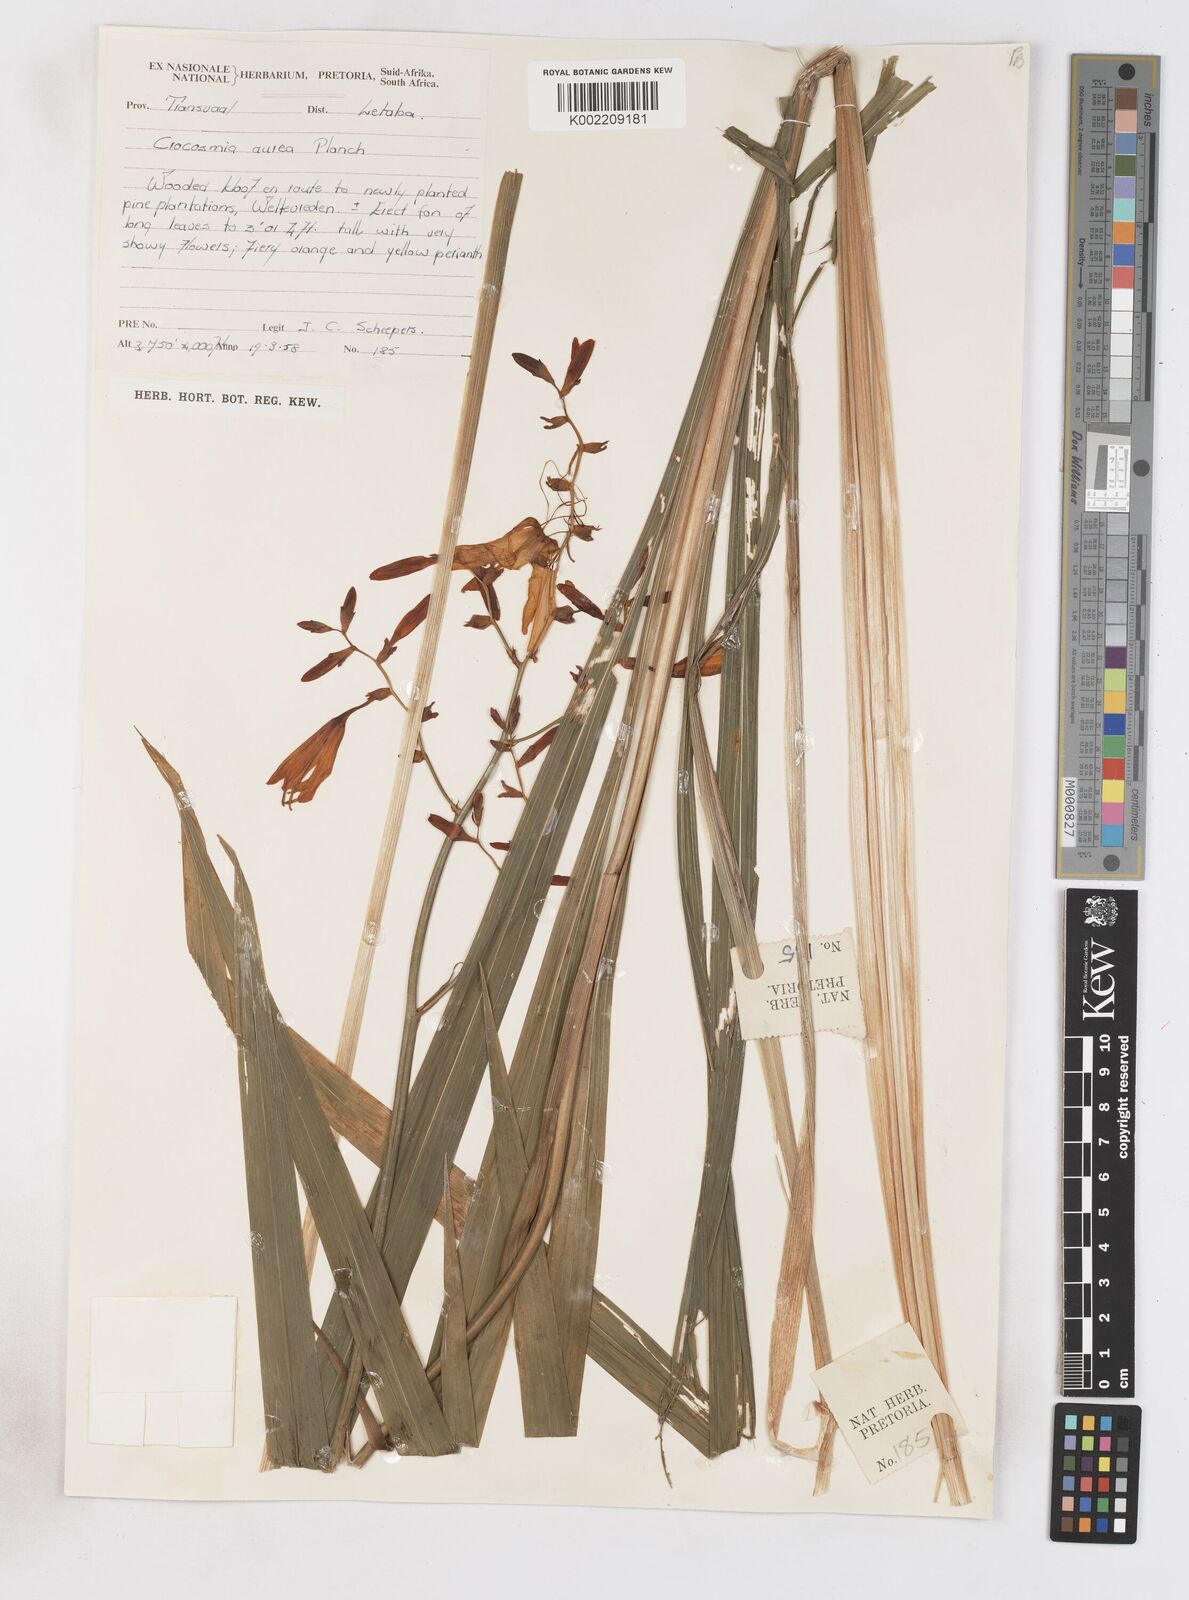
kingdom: Plantae
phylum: Tracheophyta
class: Liliopsida
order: Asparagales
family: Iridaceae
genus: Crocosmia
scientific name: Crocosmia aurea
